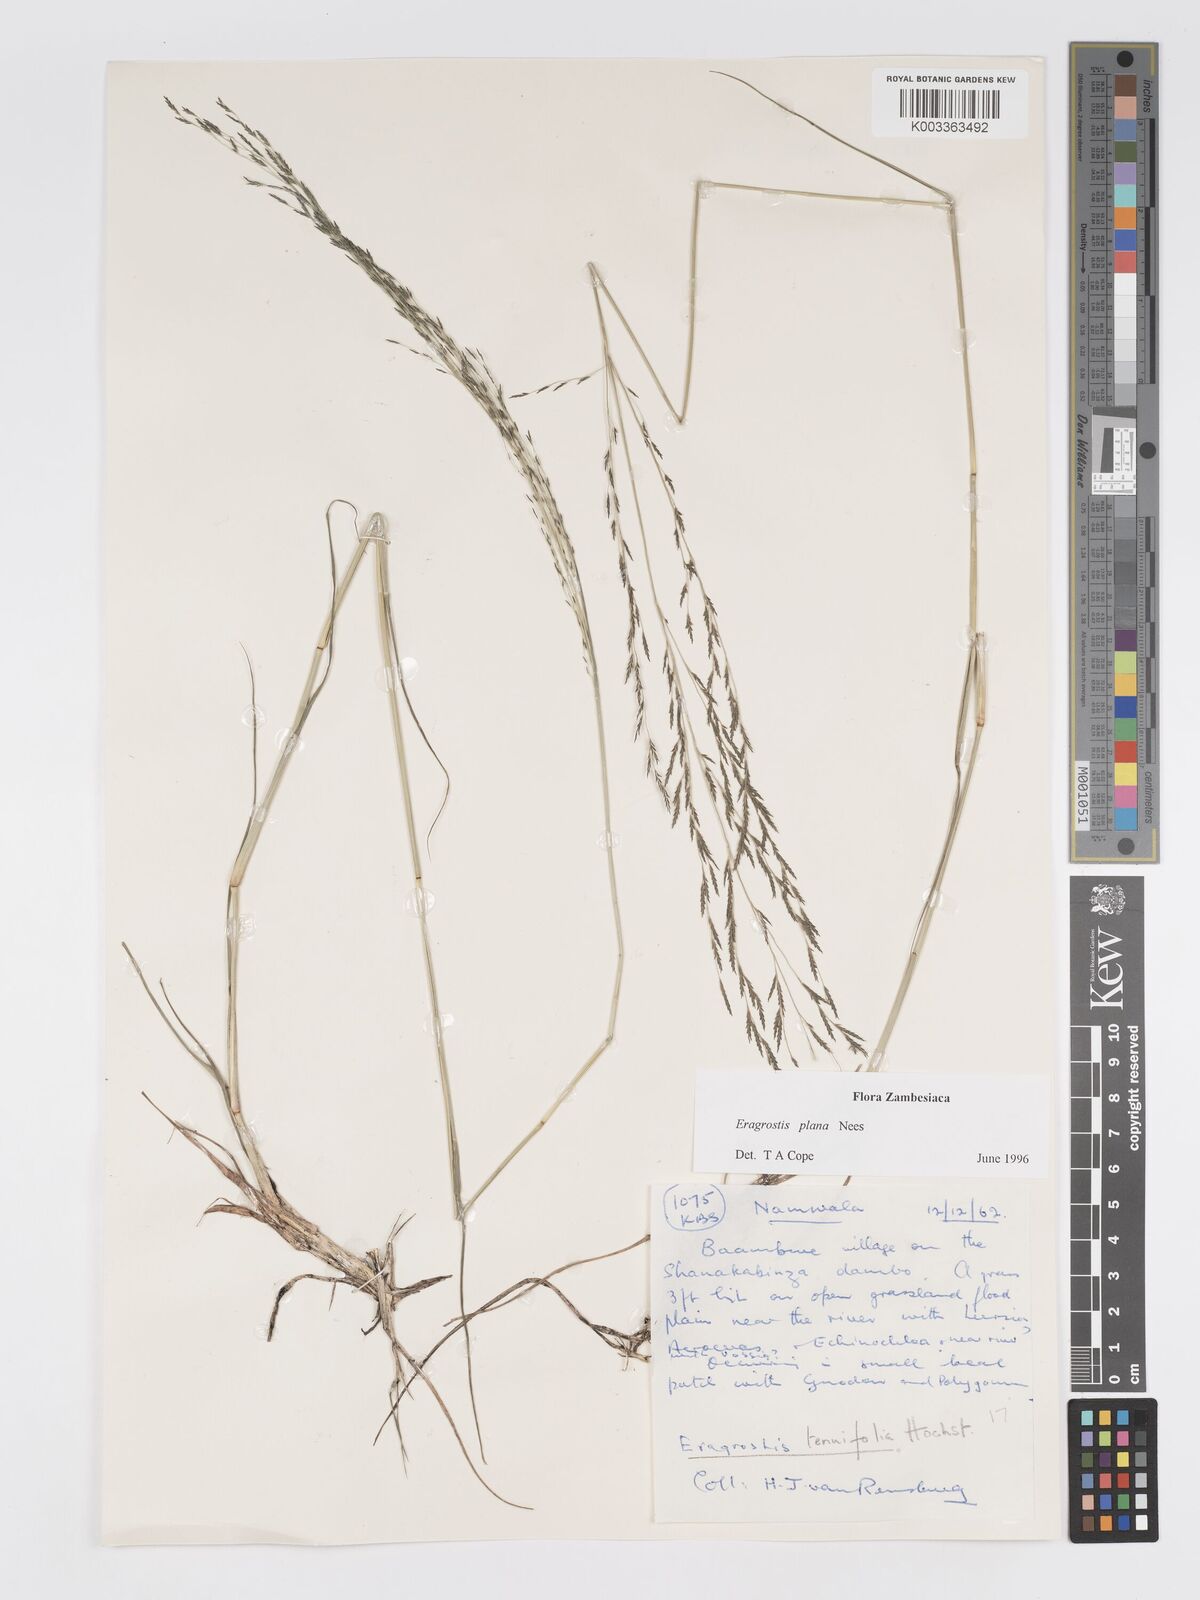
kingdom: Plantae
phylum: Tracheophyta
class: Liliopsida
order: Poales
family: Poaceae
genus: Eragrostis
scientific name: Eragrostis plana
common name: South african lovegrass
